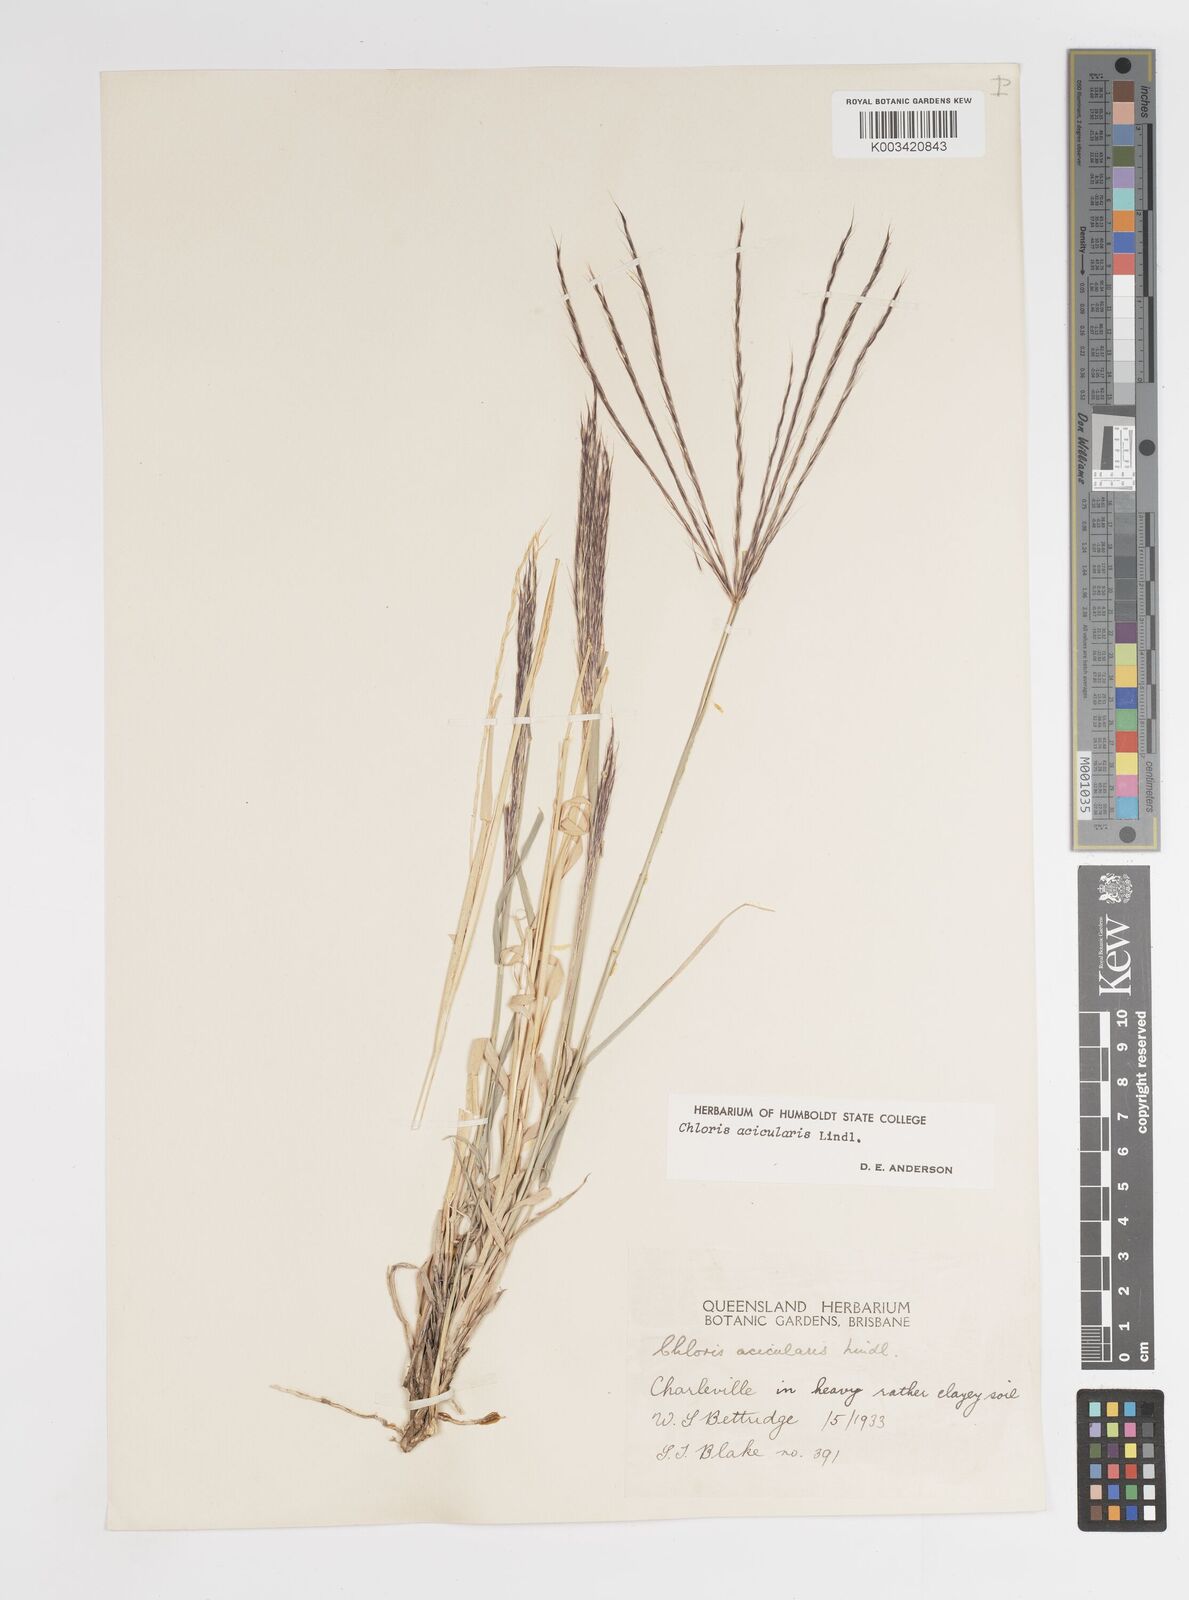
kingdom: Plantae
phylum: Tracheophyta
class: Liliopsida
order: Poales
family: Poaceae
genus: Enteropogon
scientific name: Enteropogon acicularis
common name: Curly windmill grass
